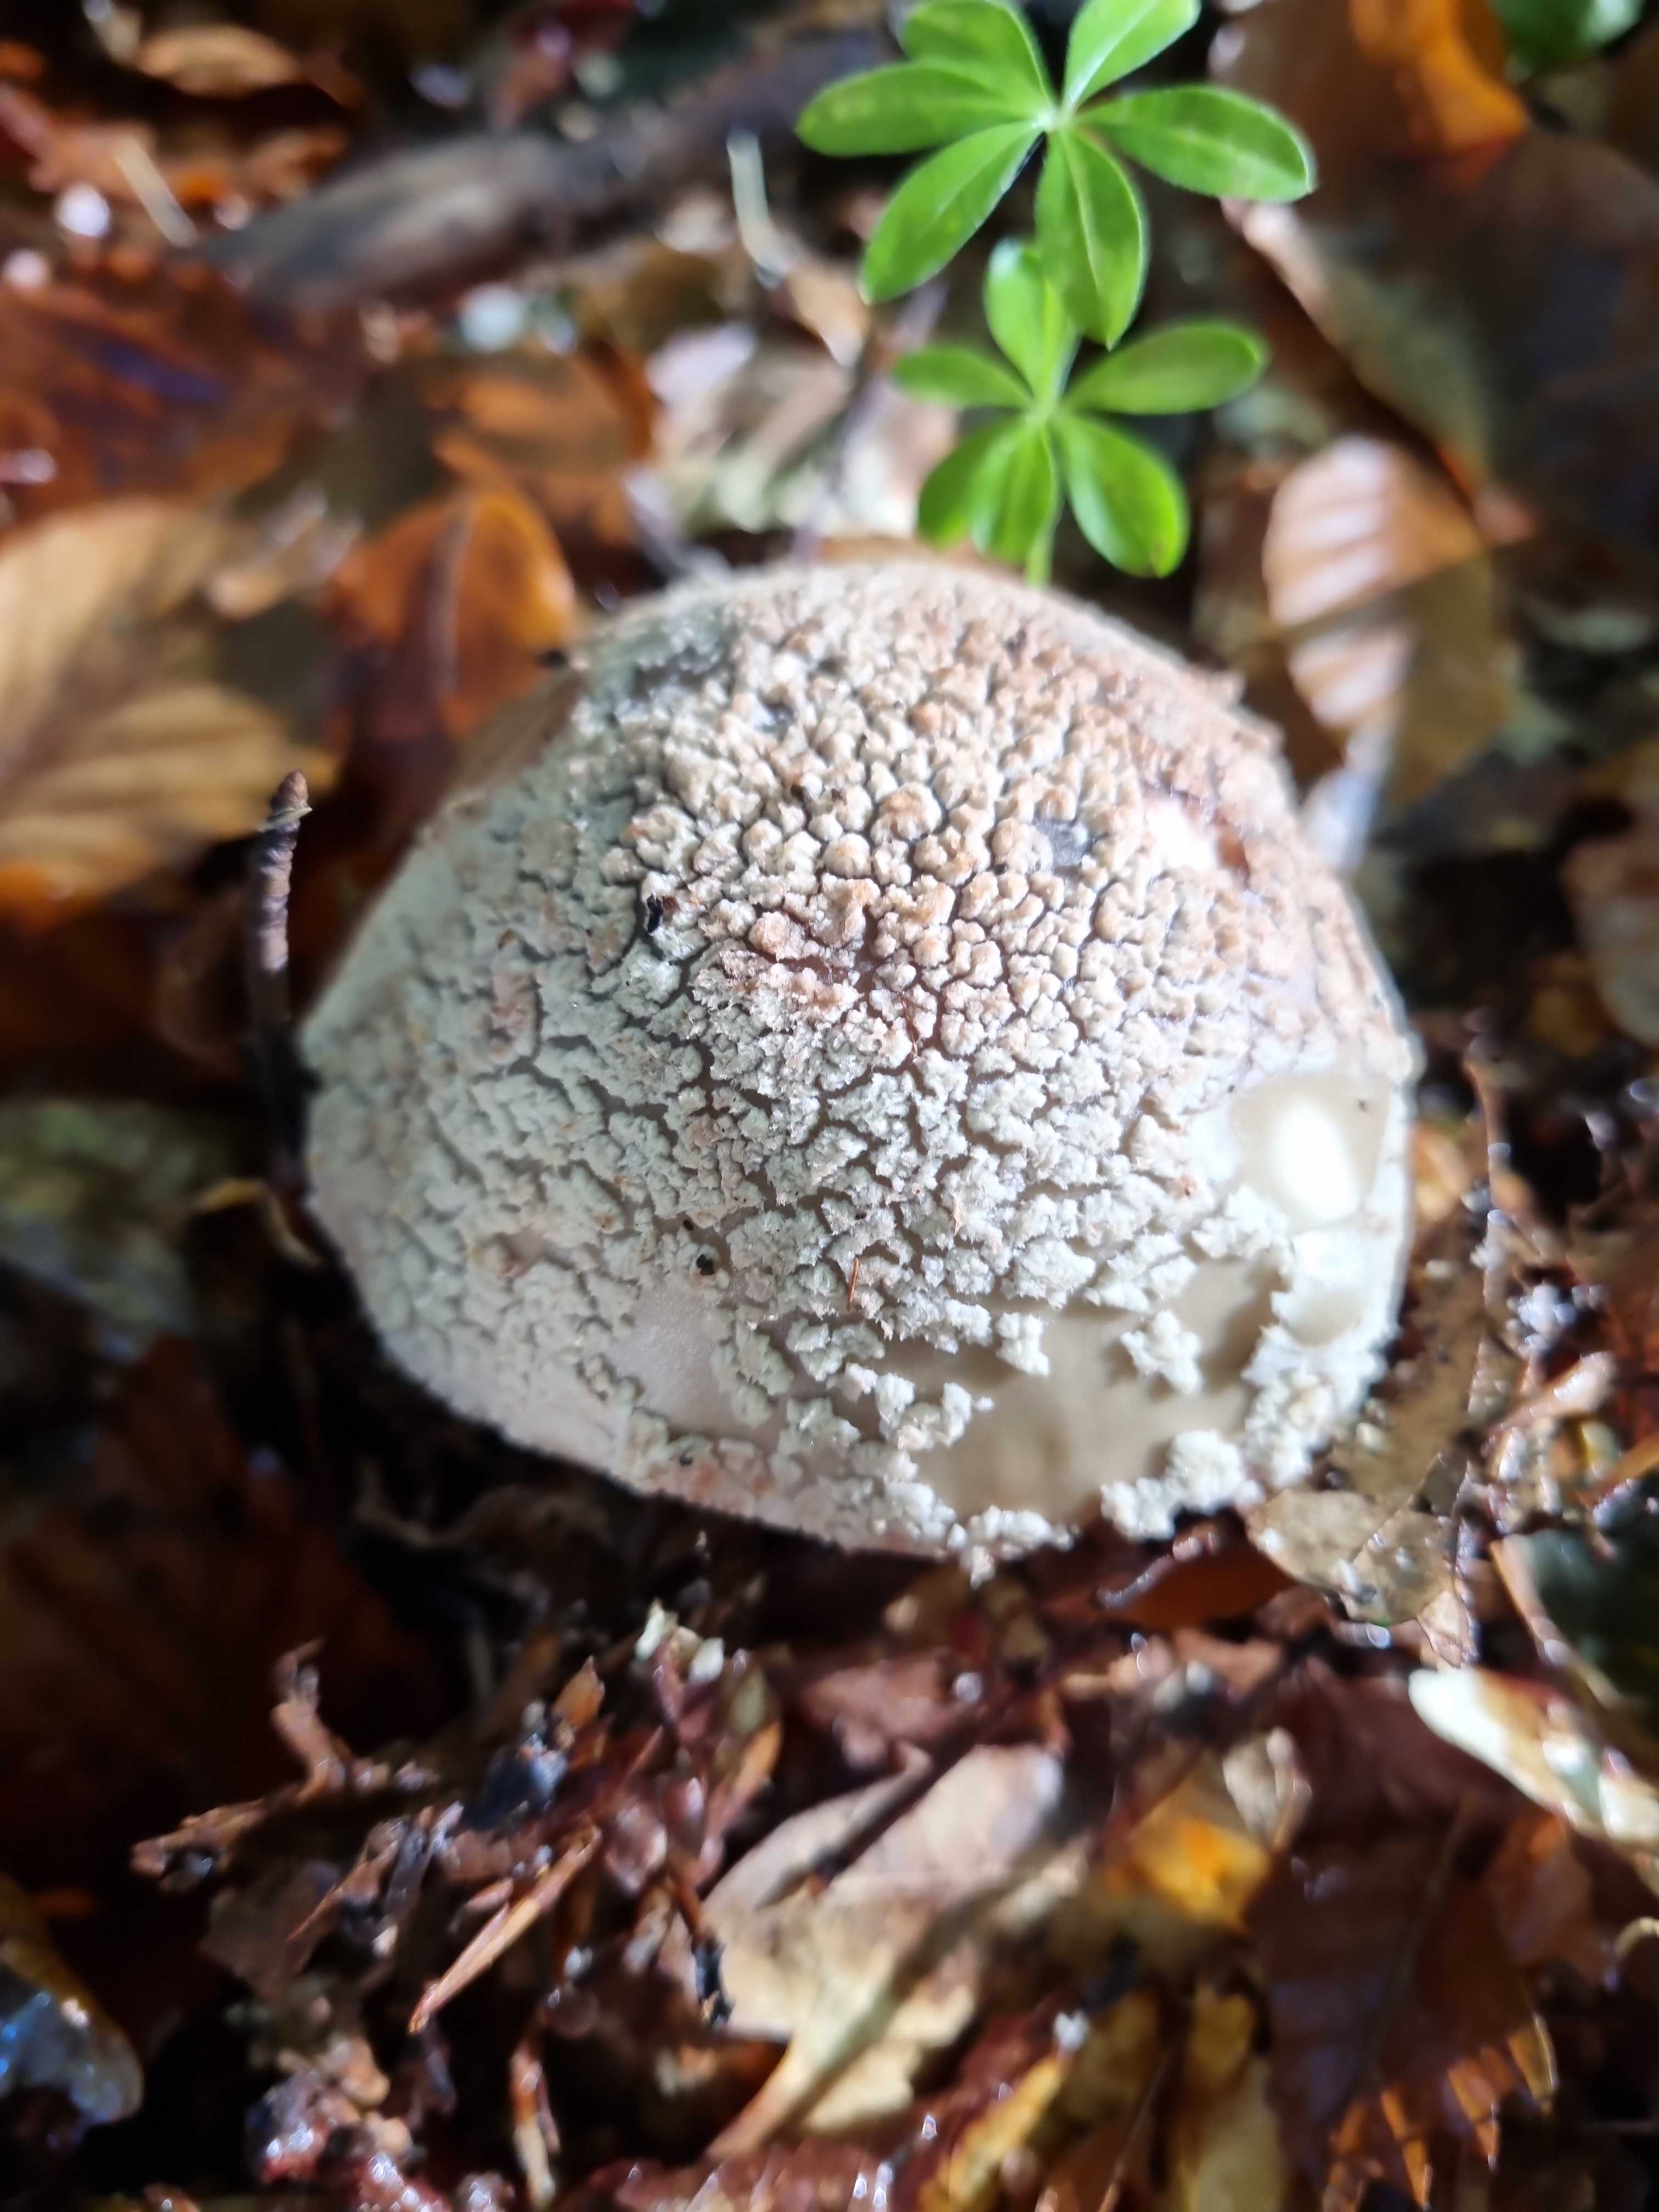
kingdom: Fungi
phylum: Basidiomycota
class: Agaricomycetes
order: Agaricales
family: Amanitaceae
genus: Amanita
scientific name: Amanita rubescens
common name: rødmende fluesvamp
